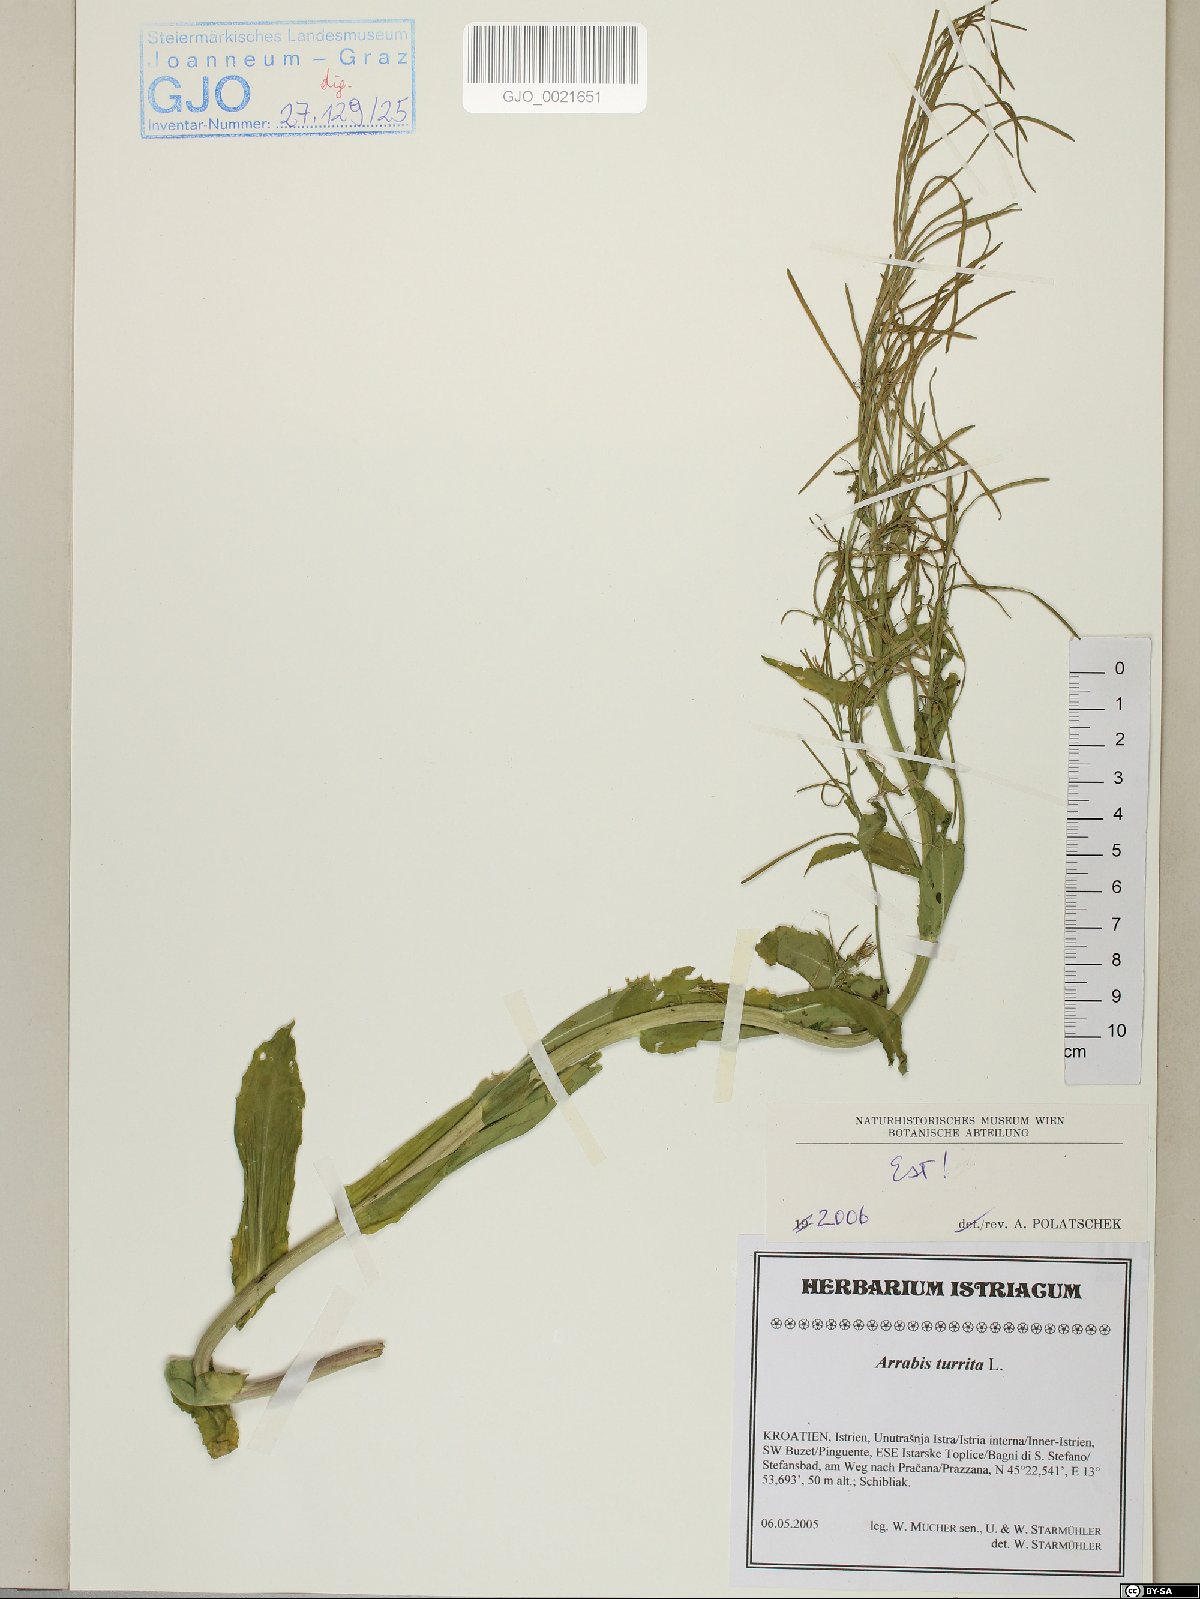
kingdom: Plantae
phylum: Tracheophyta
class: Magnoliopsida
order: Brassicales
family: Brassicaceae
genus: Pseudoturritis
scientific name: Pseudoturritis turrita
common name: Tower cress
